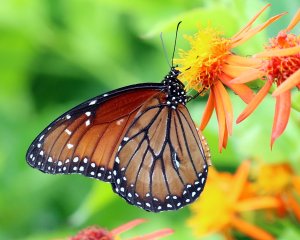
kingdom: Animalia
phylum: Arthropoda
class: Insecta
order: Lepidoptera
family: Nymphalidae
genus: Danaus
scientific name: Danaus eresimus
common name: Soldier
